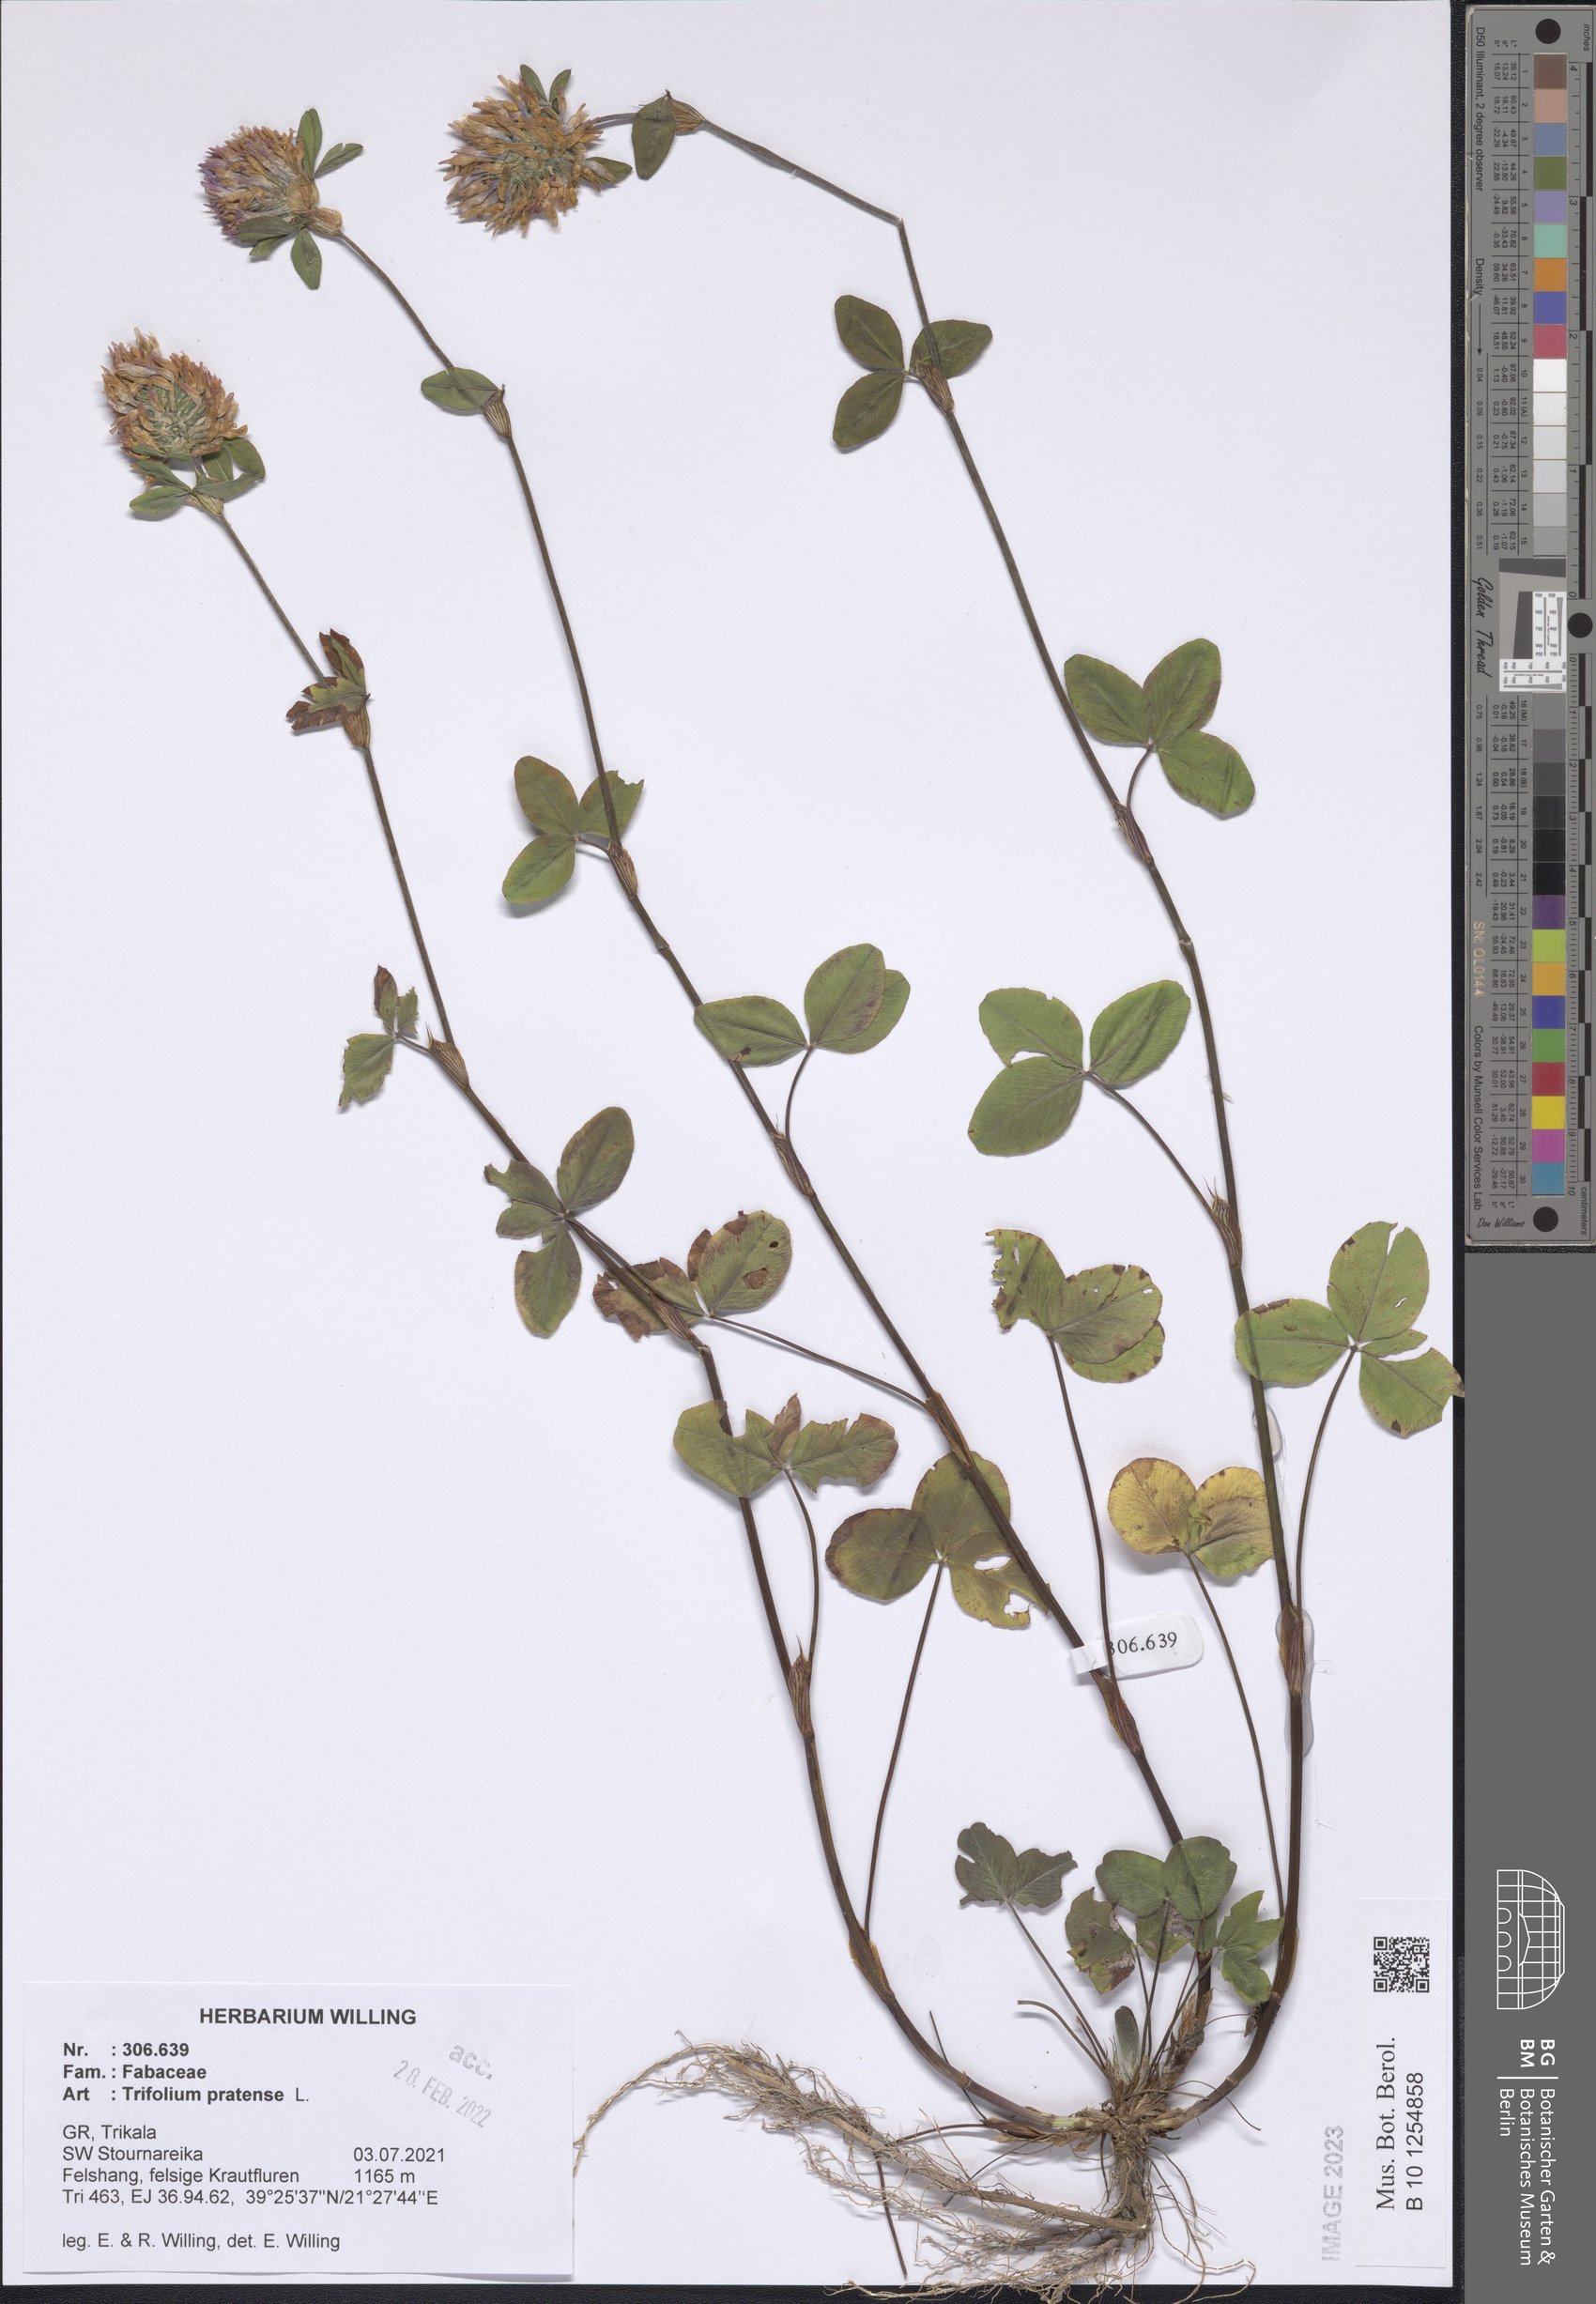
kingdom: Plantae
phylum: Tracheophyta
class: Magnoliopsida
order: Fabales
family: Fabaceae
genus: Trifolium
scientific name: Trifolium pratense
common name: Red clover
